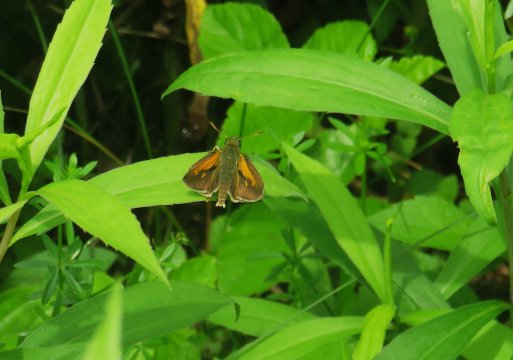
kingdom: Animalia
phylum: Arthropoda
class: Insecta
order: Lepidoptera
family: Hesperiidae
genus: Polites
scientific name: Polites themistocles
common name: Tawny-edged Skipper
